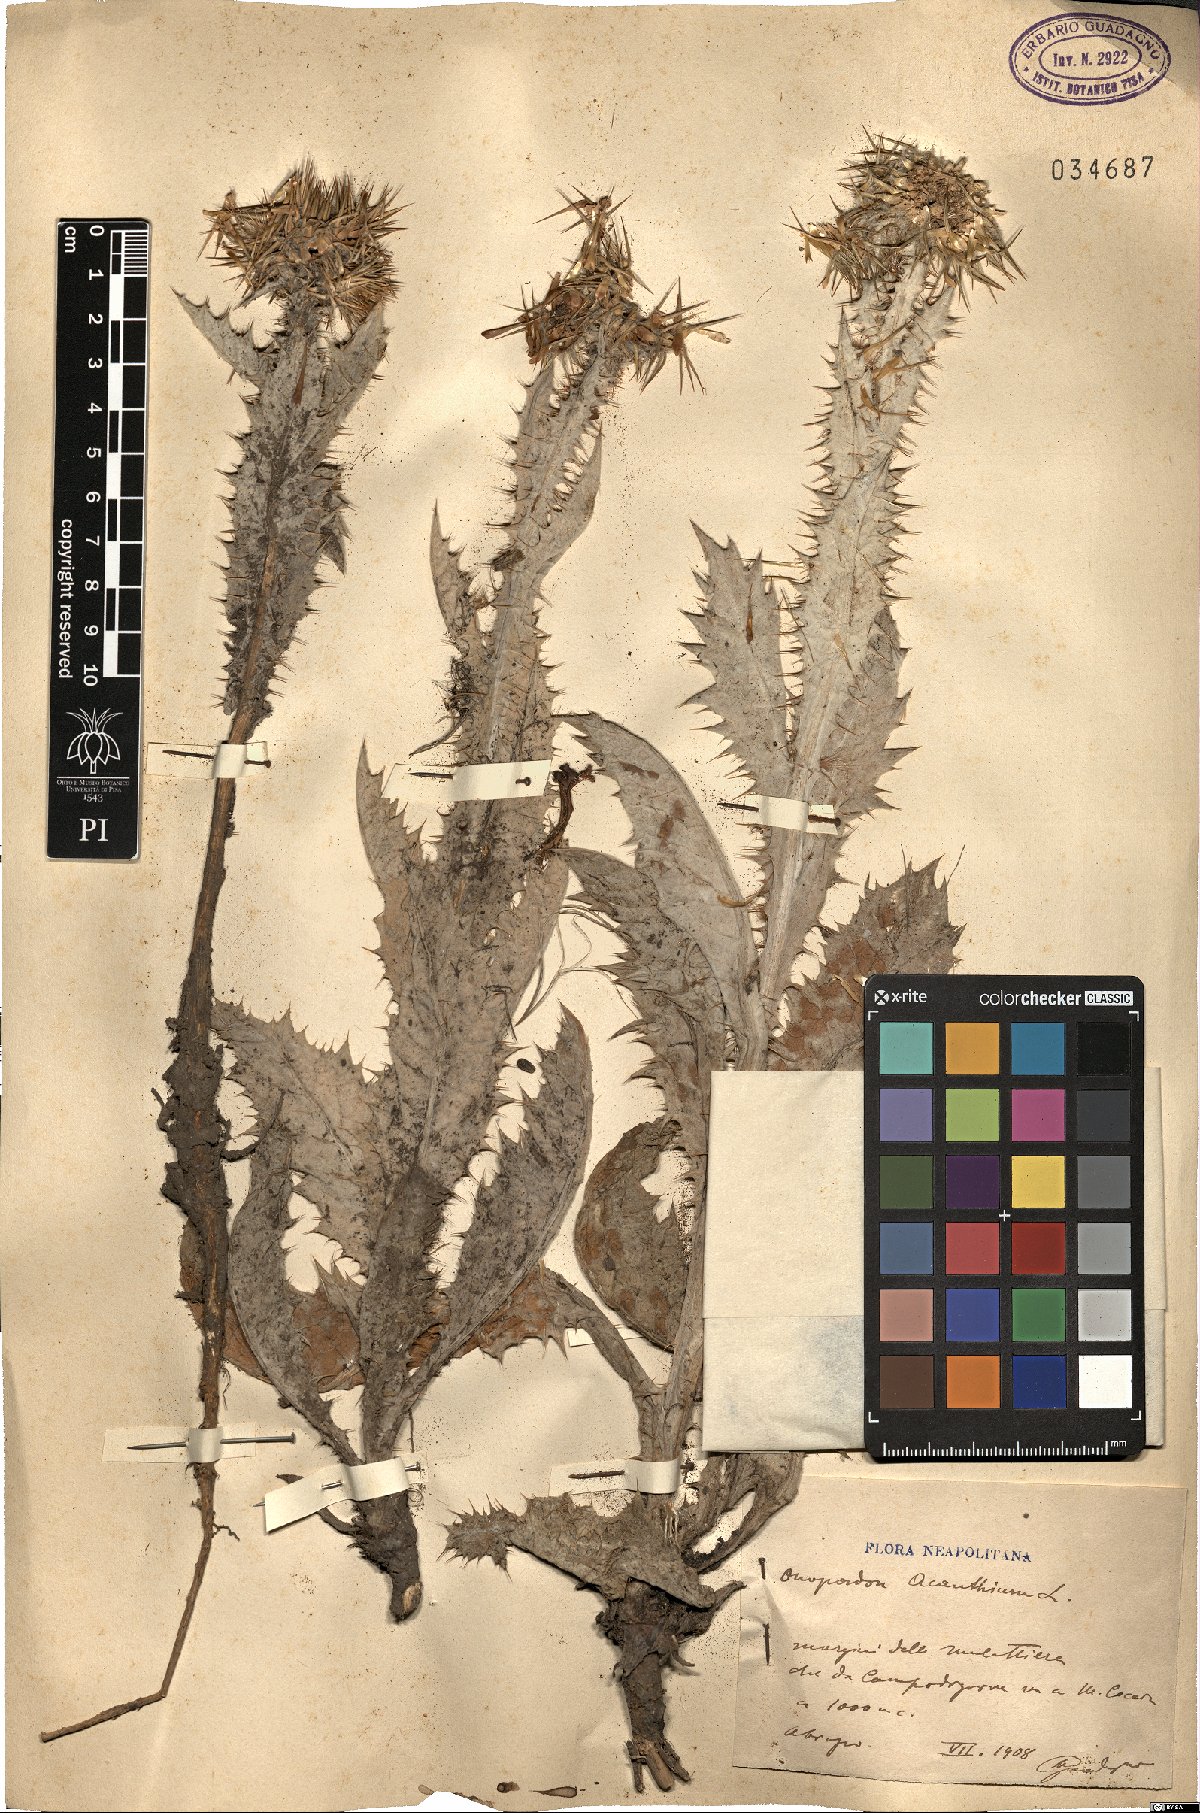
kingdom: Plantae
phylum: Tracheophyta
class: Magnoliopsida
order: Asterales
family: Asteraceae
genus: Onopordum
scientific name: Onopordum acanthium
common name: Scotch thistle
